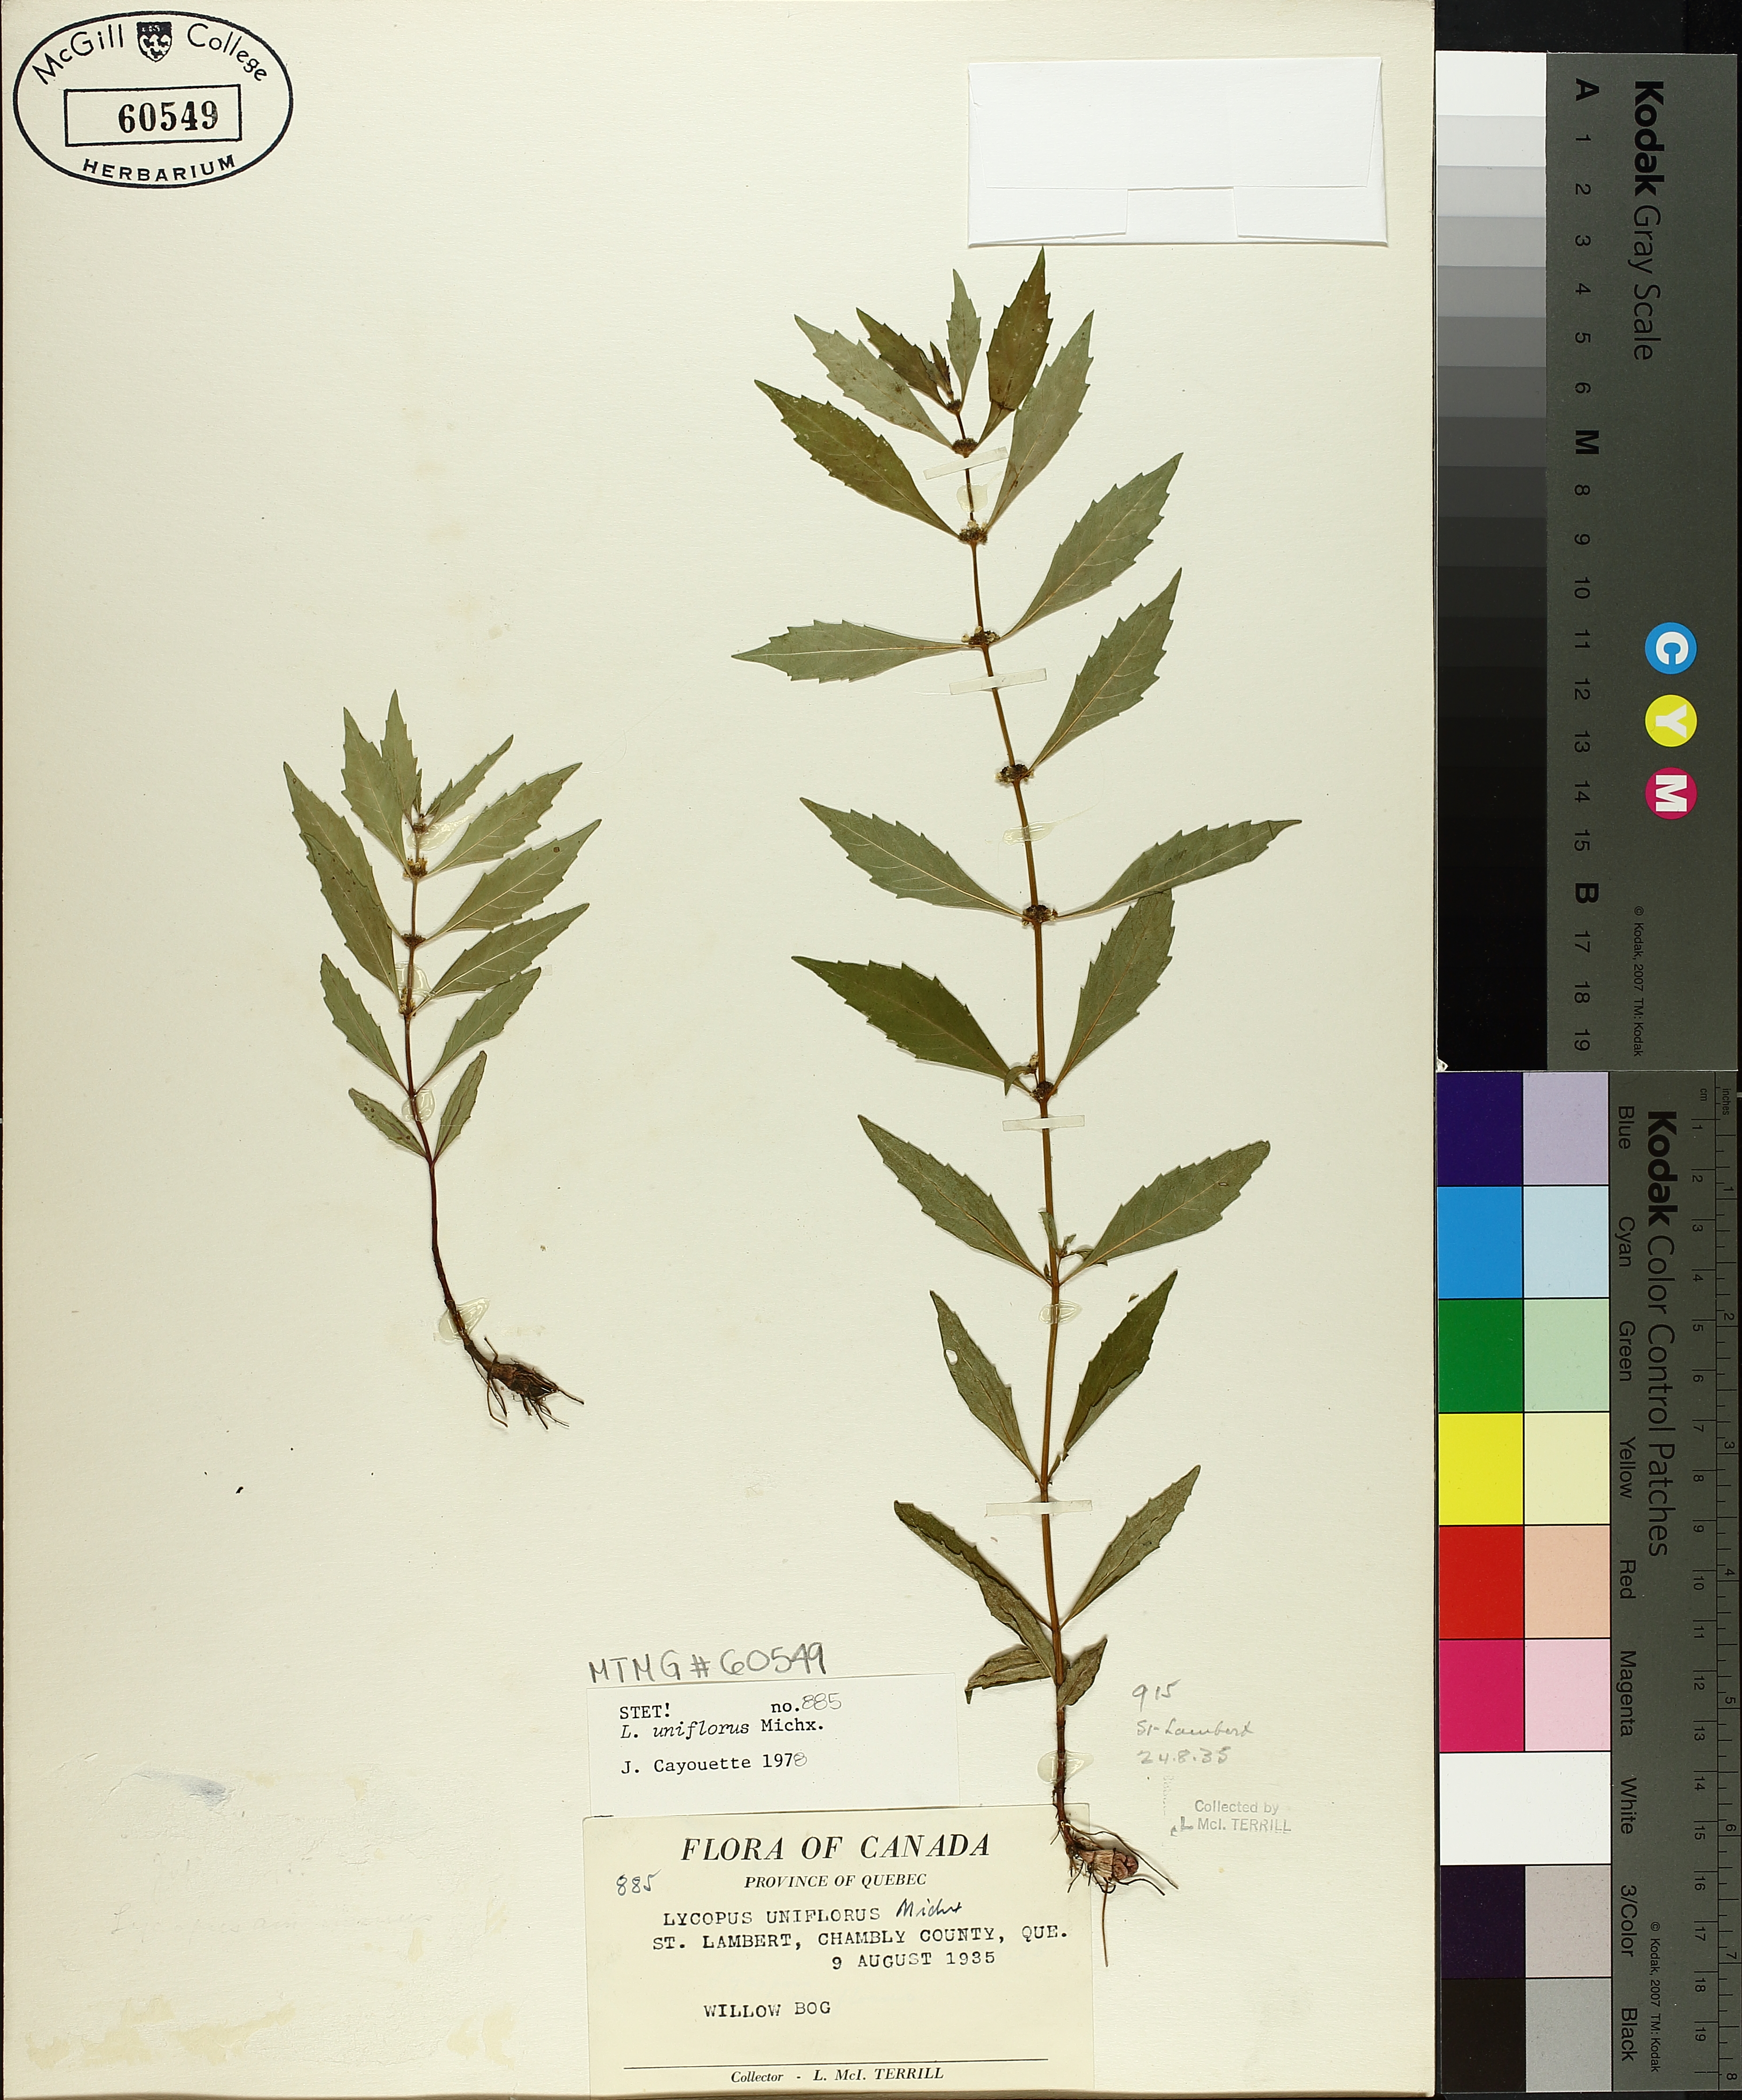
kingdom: Plantae
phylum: Tracheophyta
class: Magnoliopsida
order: Lamiales
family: Lamiaceae
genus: Lycopus
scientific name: Lycopus uniflorus
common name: Northern bugleweed
